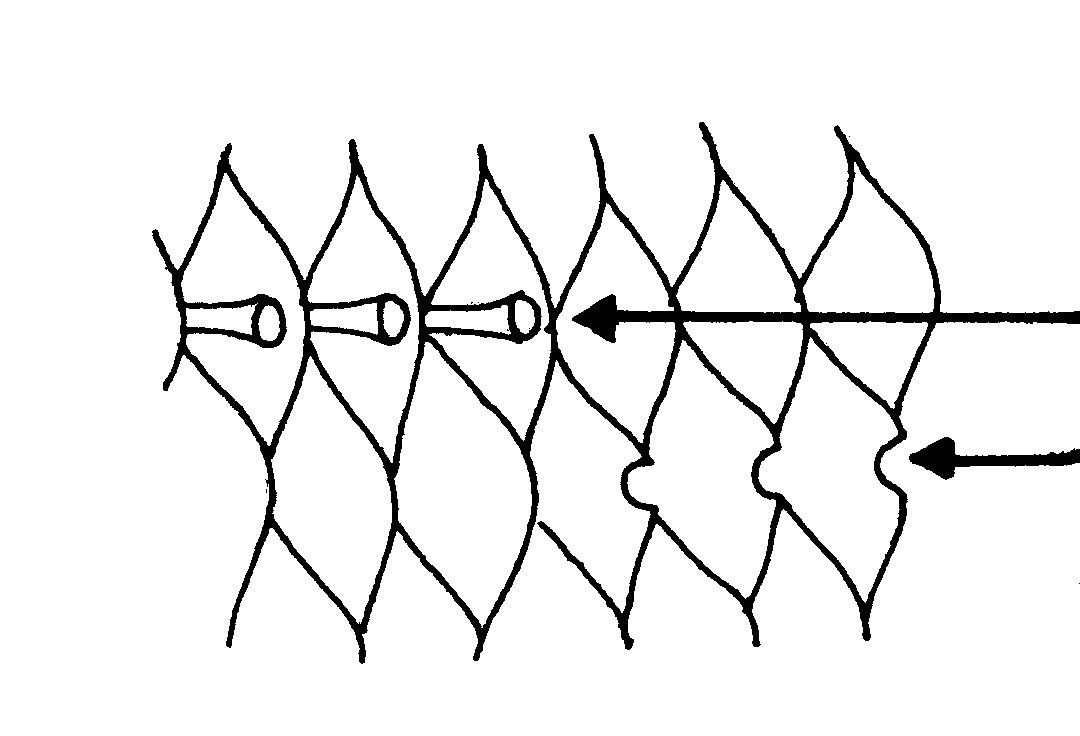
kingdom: Animalia
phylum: Chordata
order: Perciformes
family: Tripterygiidae
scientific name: Tripterygiidae
